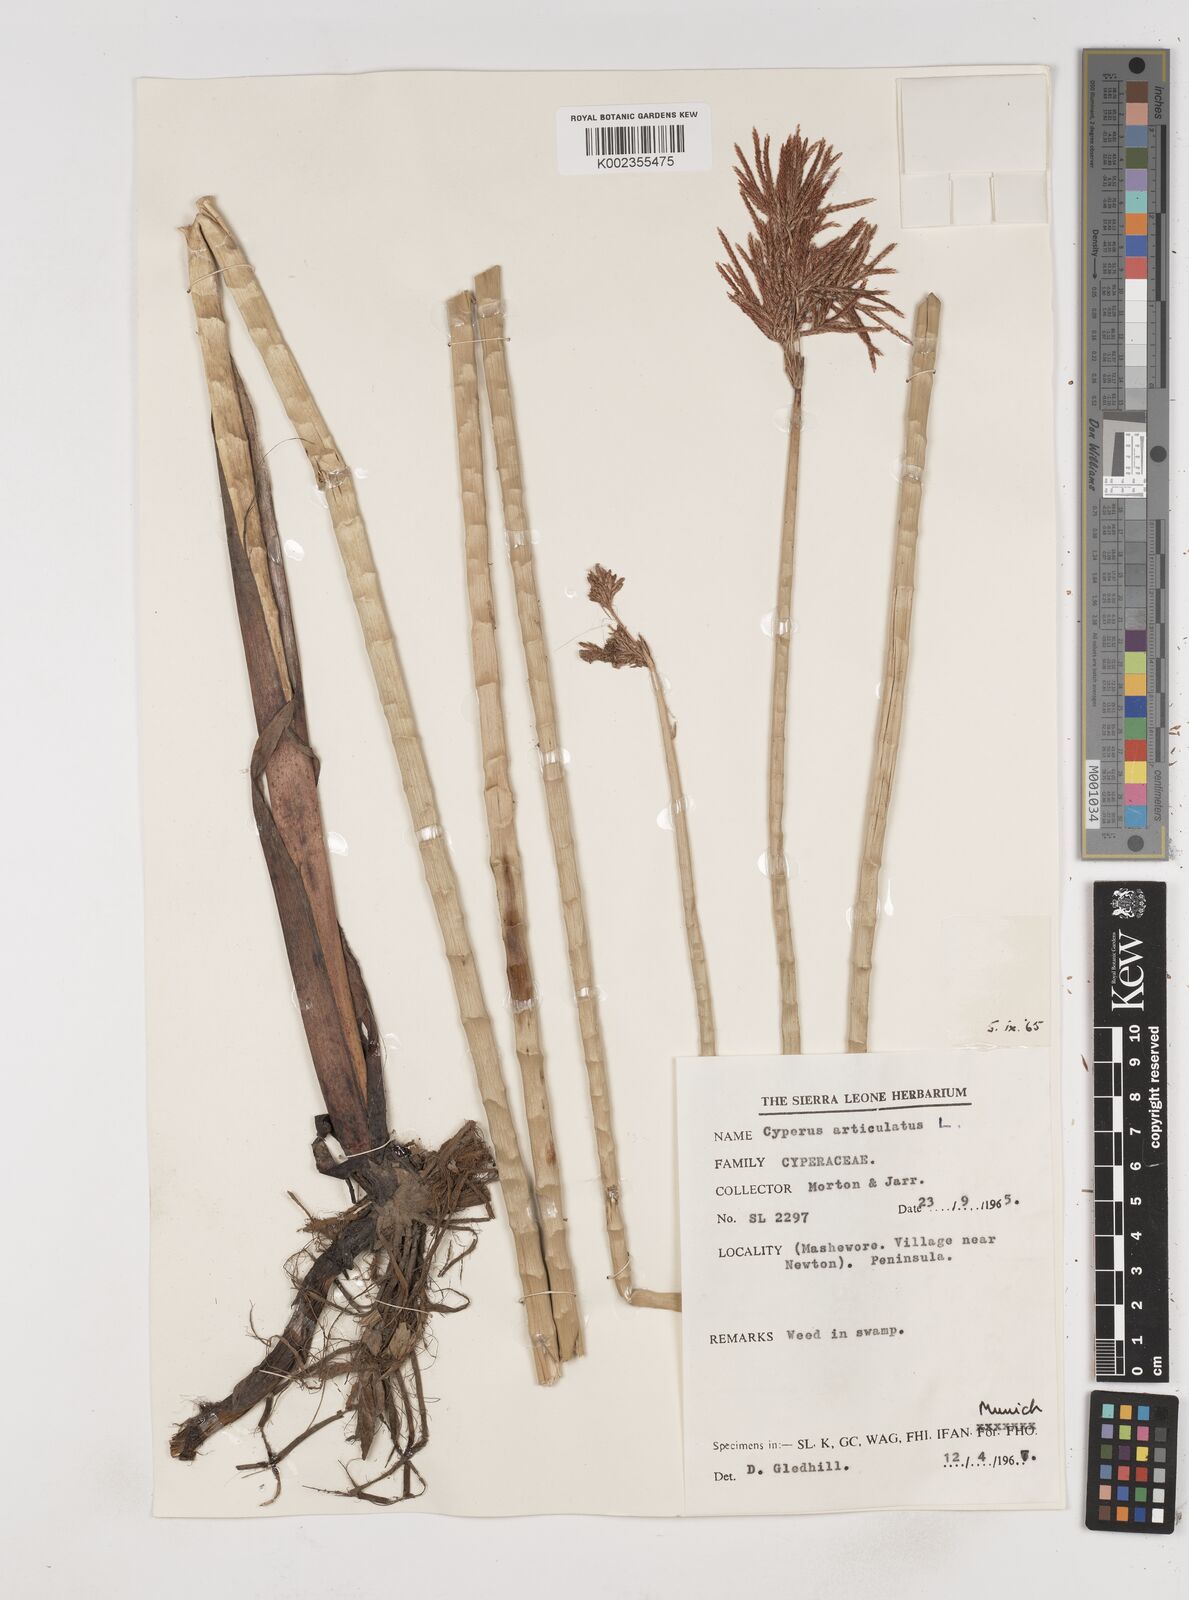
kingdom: Plantae
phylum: Tracheophyta
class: Liliopsida
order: Poales
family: Cyperaceae
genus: Cyperus
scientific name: Cyperus articulatus
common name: Jointed flatsedge
